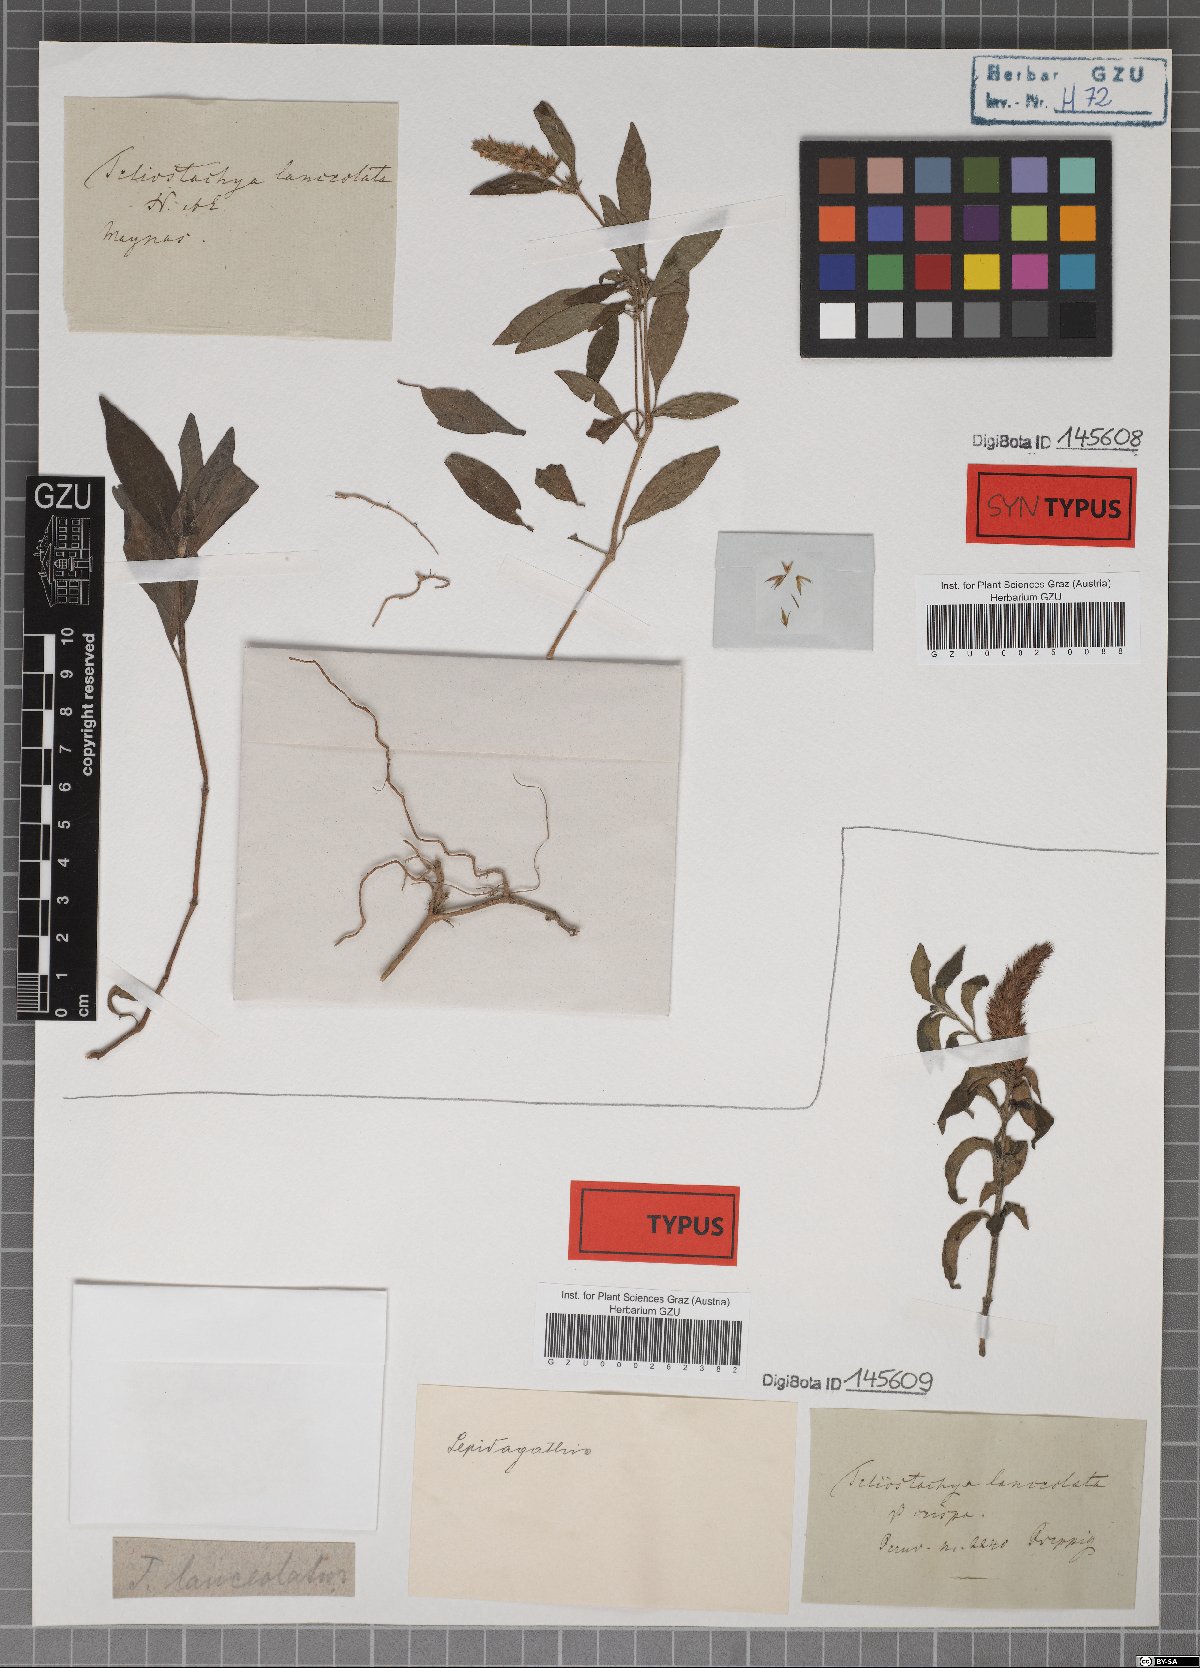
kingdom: Plantae
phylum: Tracheophyta
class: Magnoliopsida
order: Lamiales
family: Acanthaceae
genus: Lepidagathis
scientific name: Lepidagathis alopecuroidea
